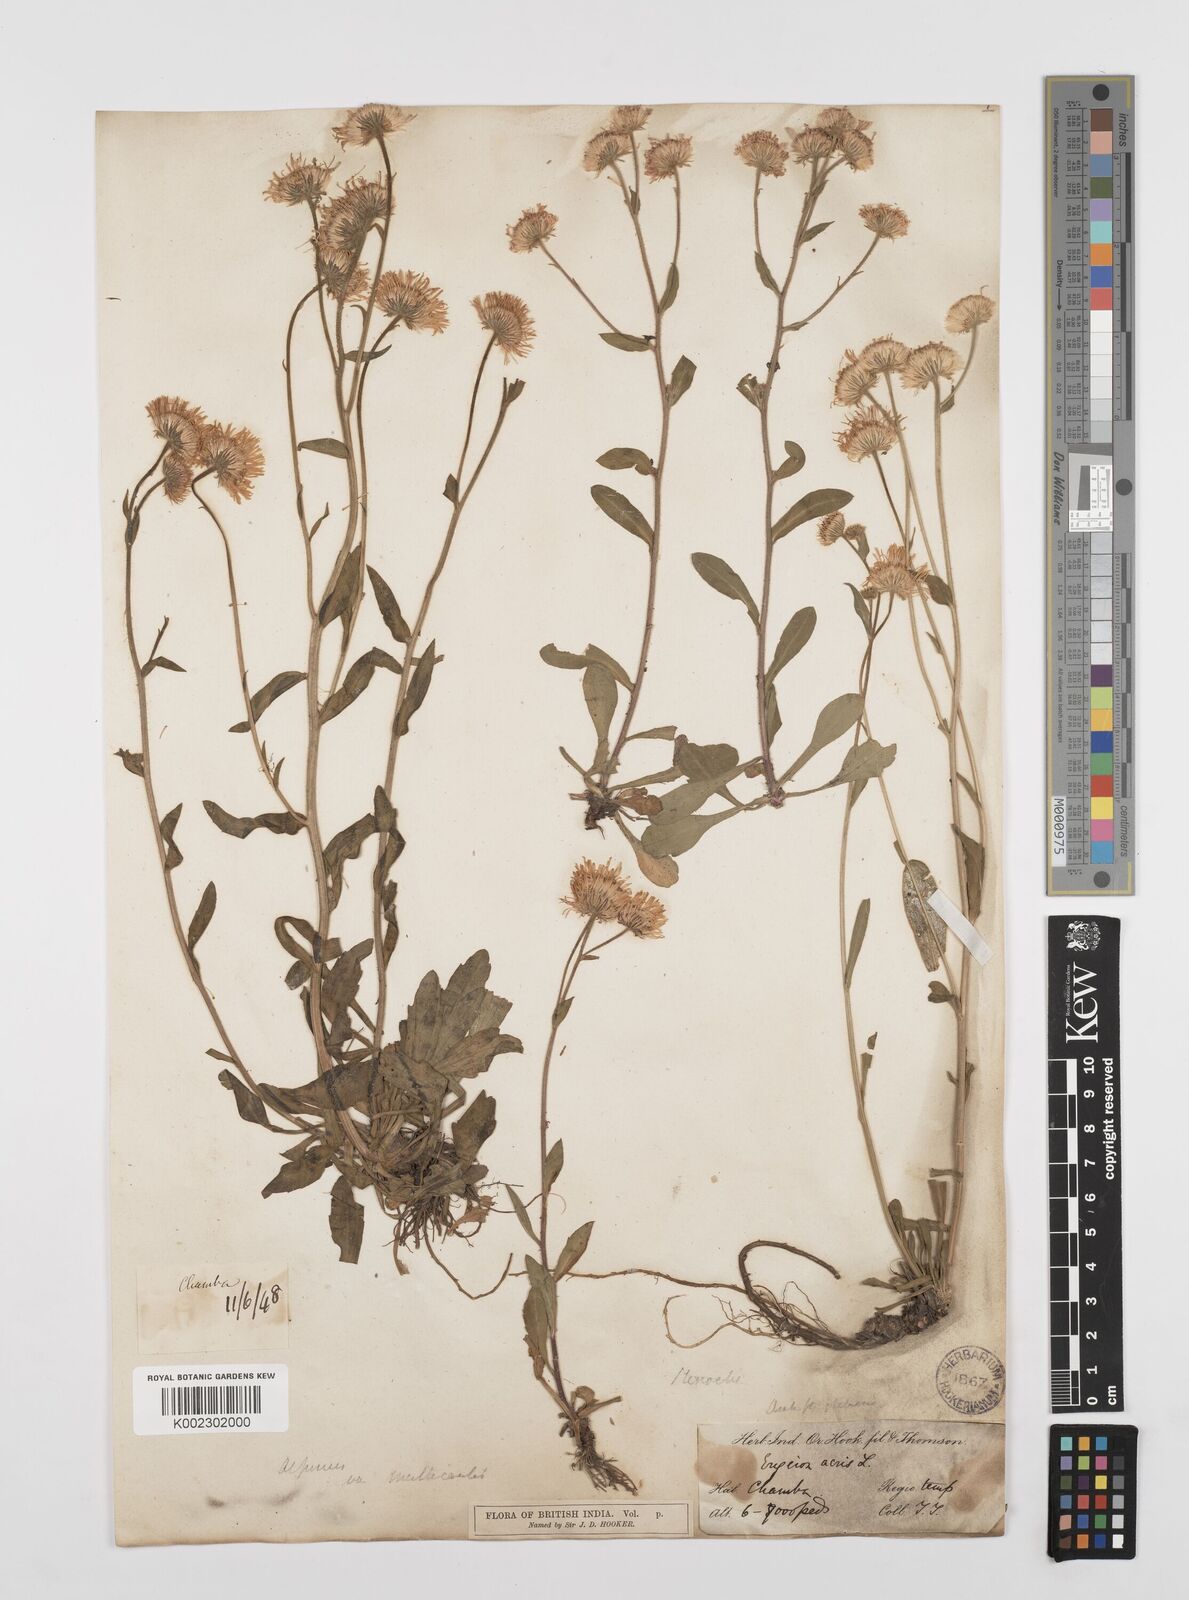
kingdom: Plantae
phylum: Tracheophyta
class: Magnoliopsida
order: Asterales
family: Asteraceae
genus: Erigeron
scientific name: Erigeron alpinus
